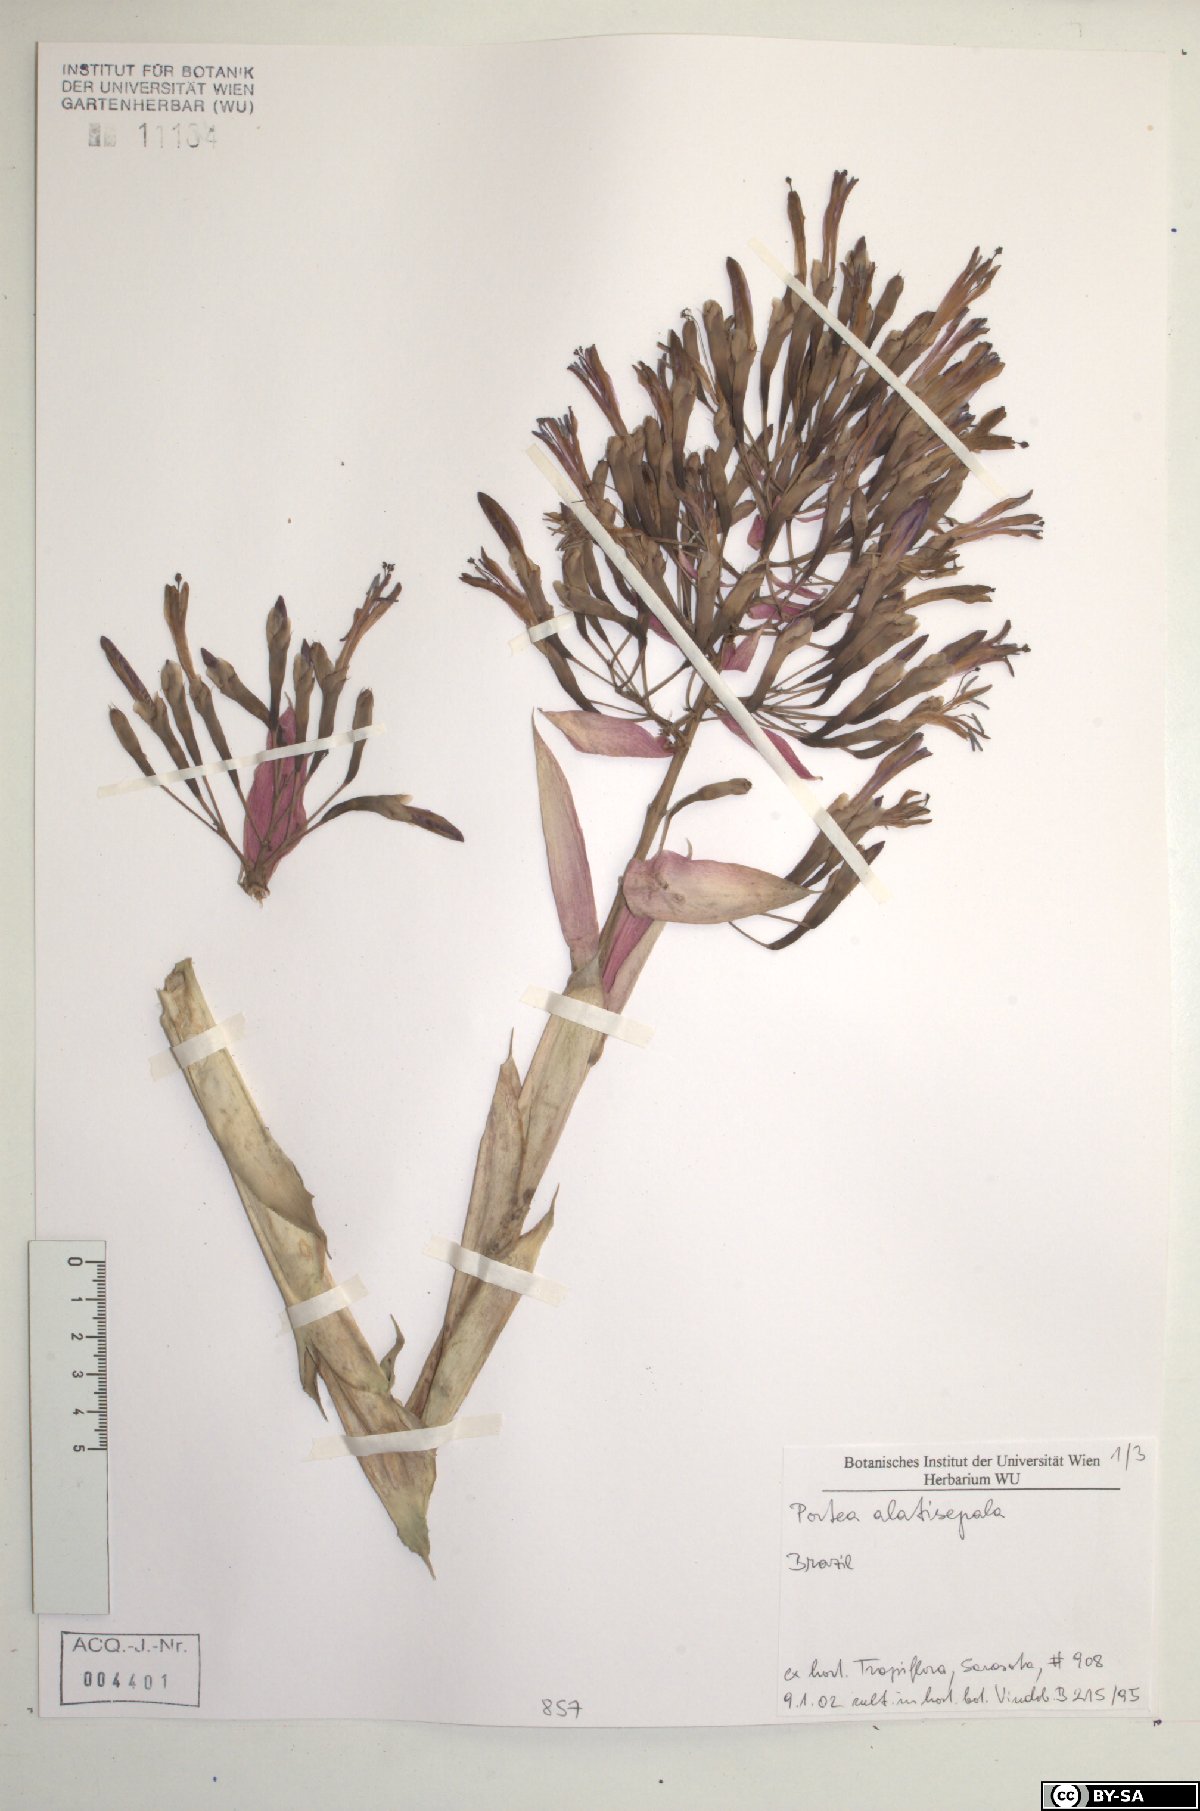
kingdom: Plantae
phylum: Tracheophyta
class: Liliopsida
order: Poales
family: Bromeliaceae
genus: Portea
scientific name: Portea alatisepala
